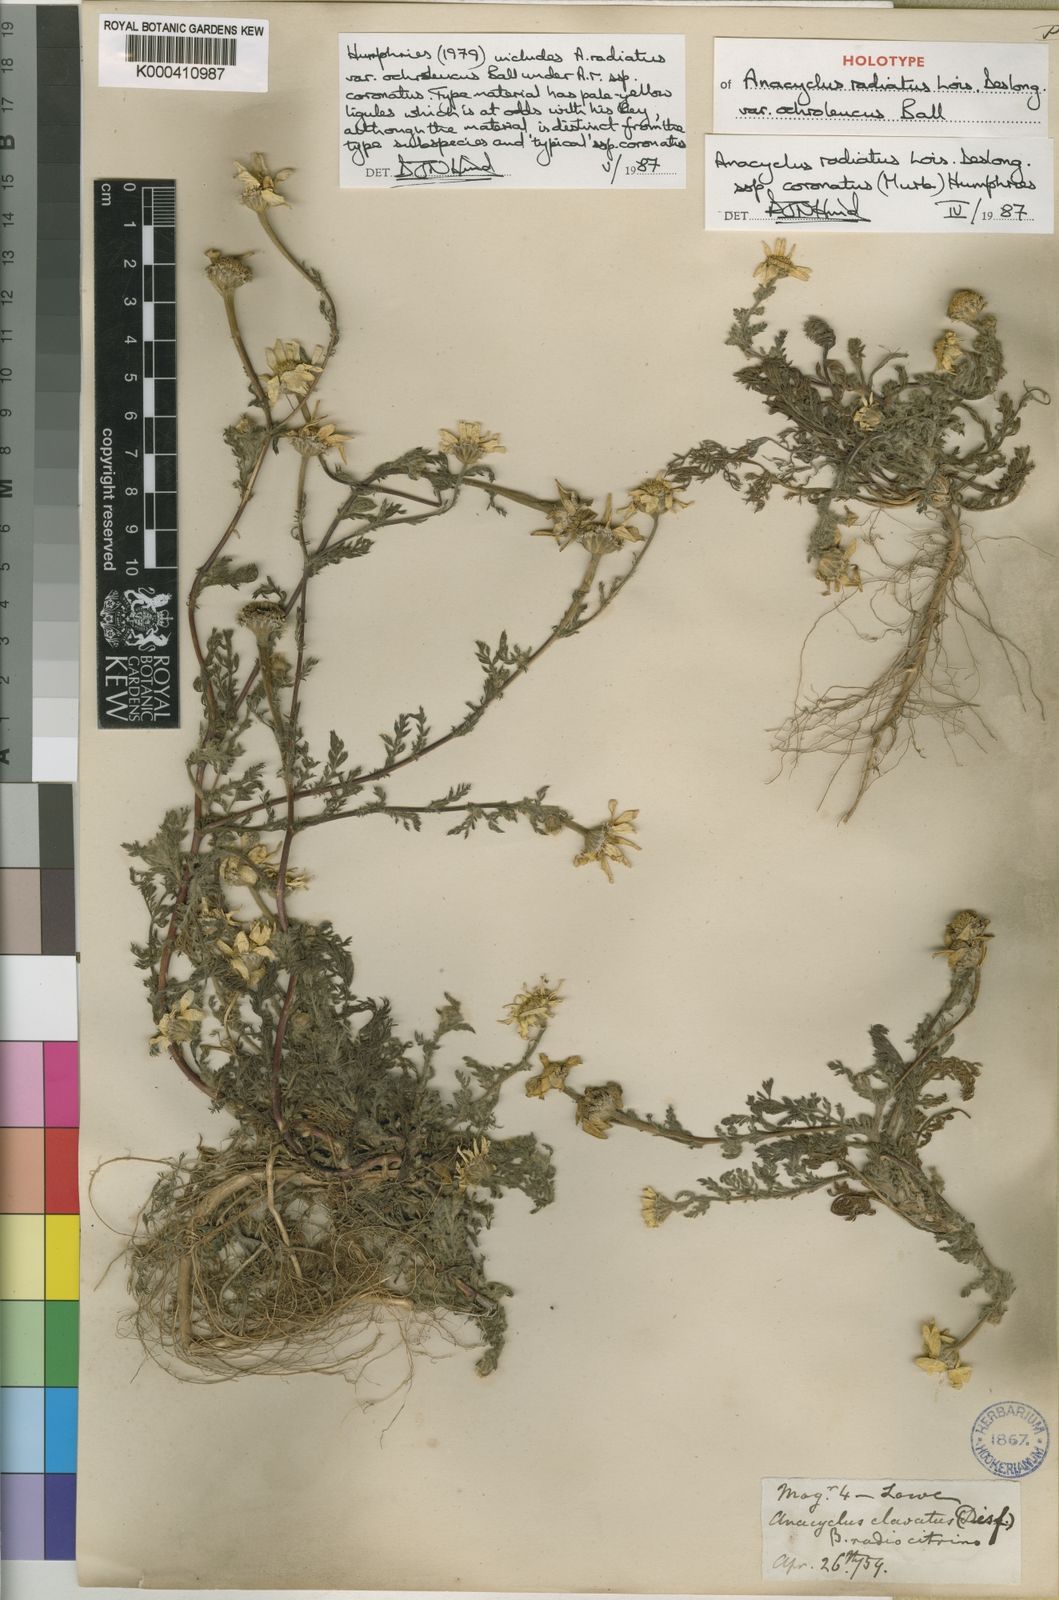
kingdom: Plantae
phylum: Tracheophyta
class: Magnoliopsida
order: Asterales
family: Asteraceae
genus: Anacyclus
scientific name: Anacyclus radiatus
